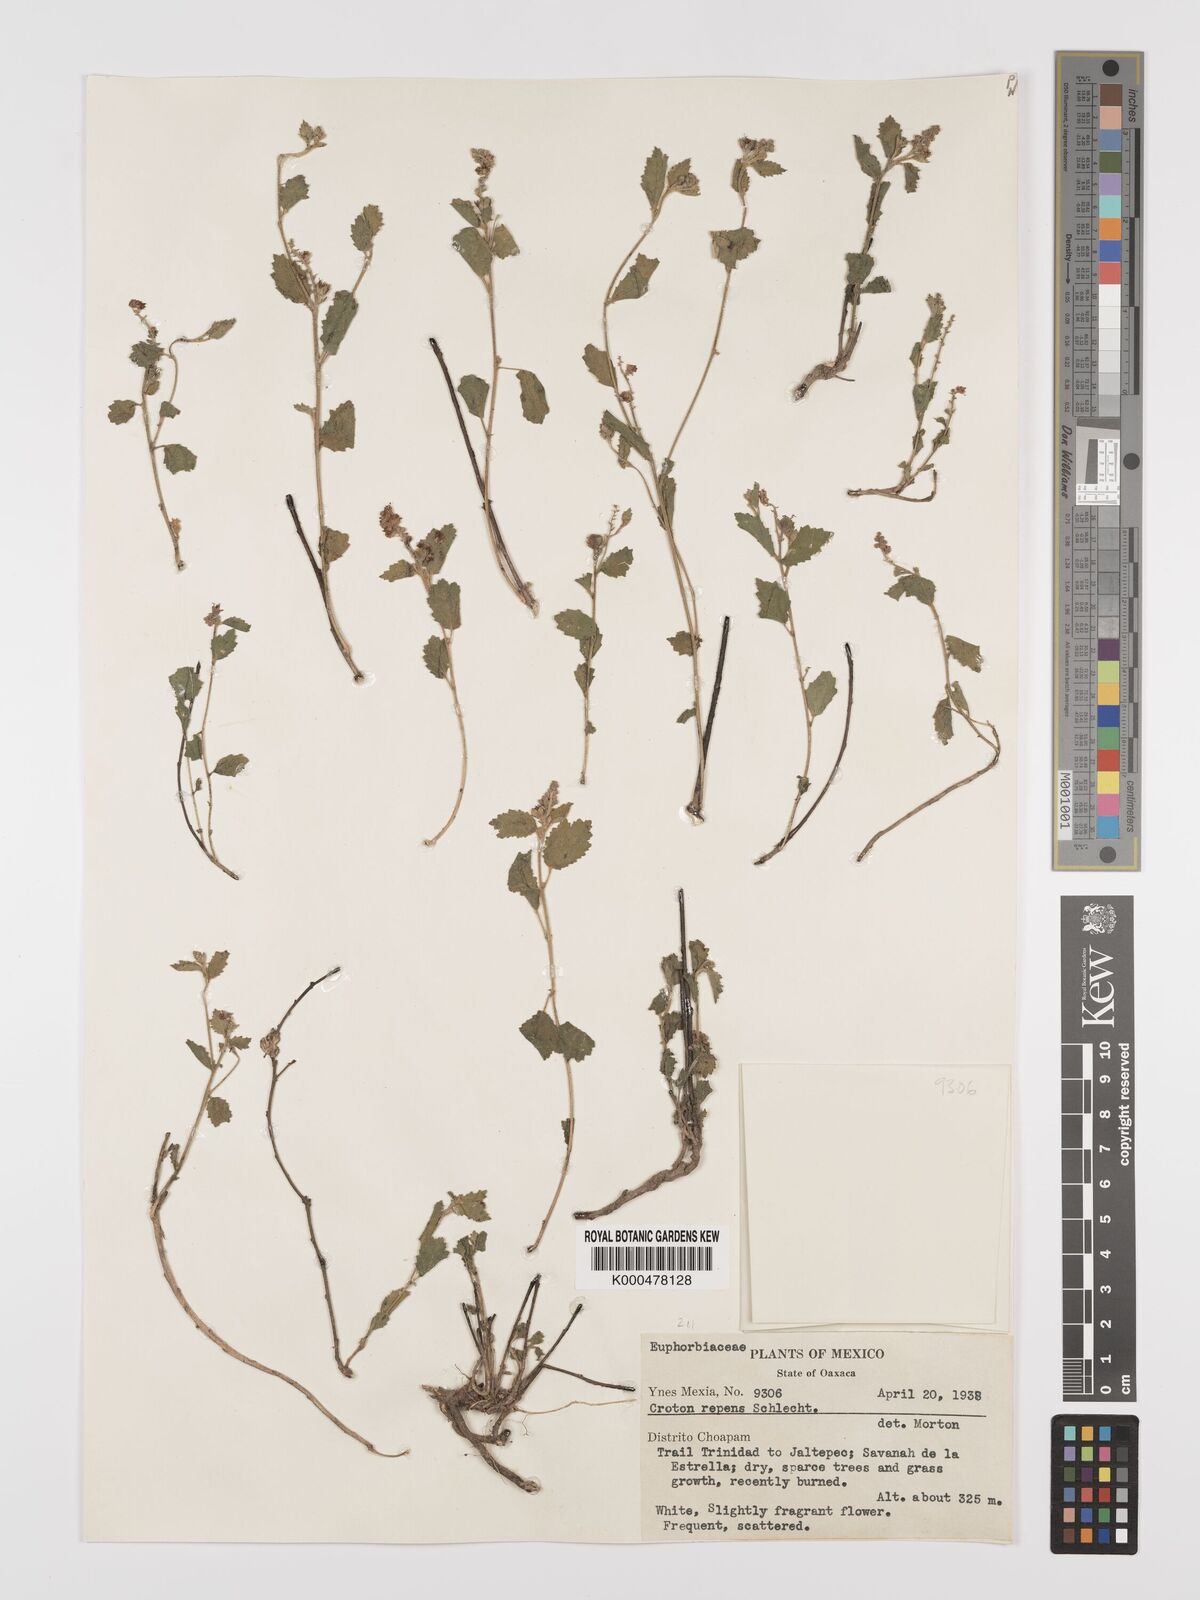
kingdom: Plantae
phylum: Tracheophyta
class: Magnoliopsida
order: Malpighiales
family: Euphorbiaceae
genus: Croton
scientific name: Croton repens
